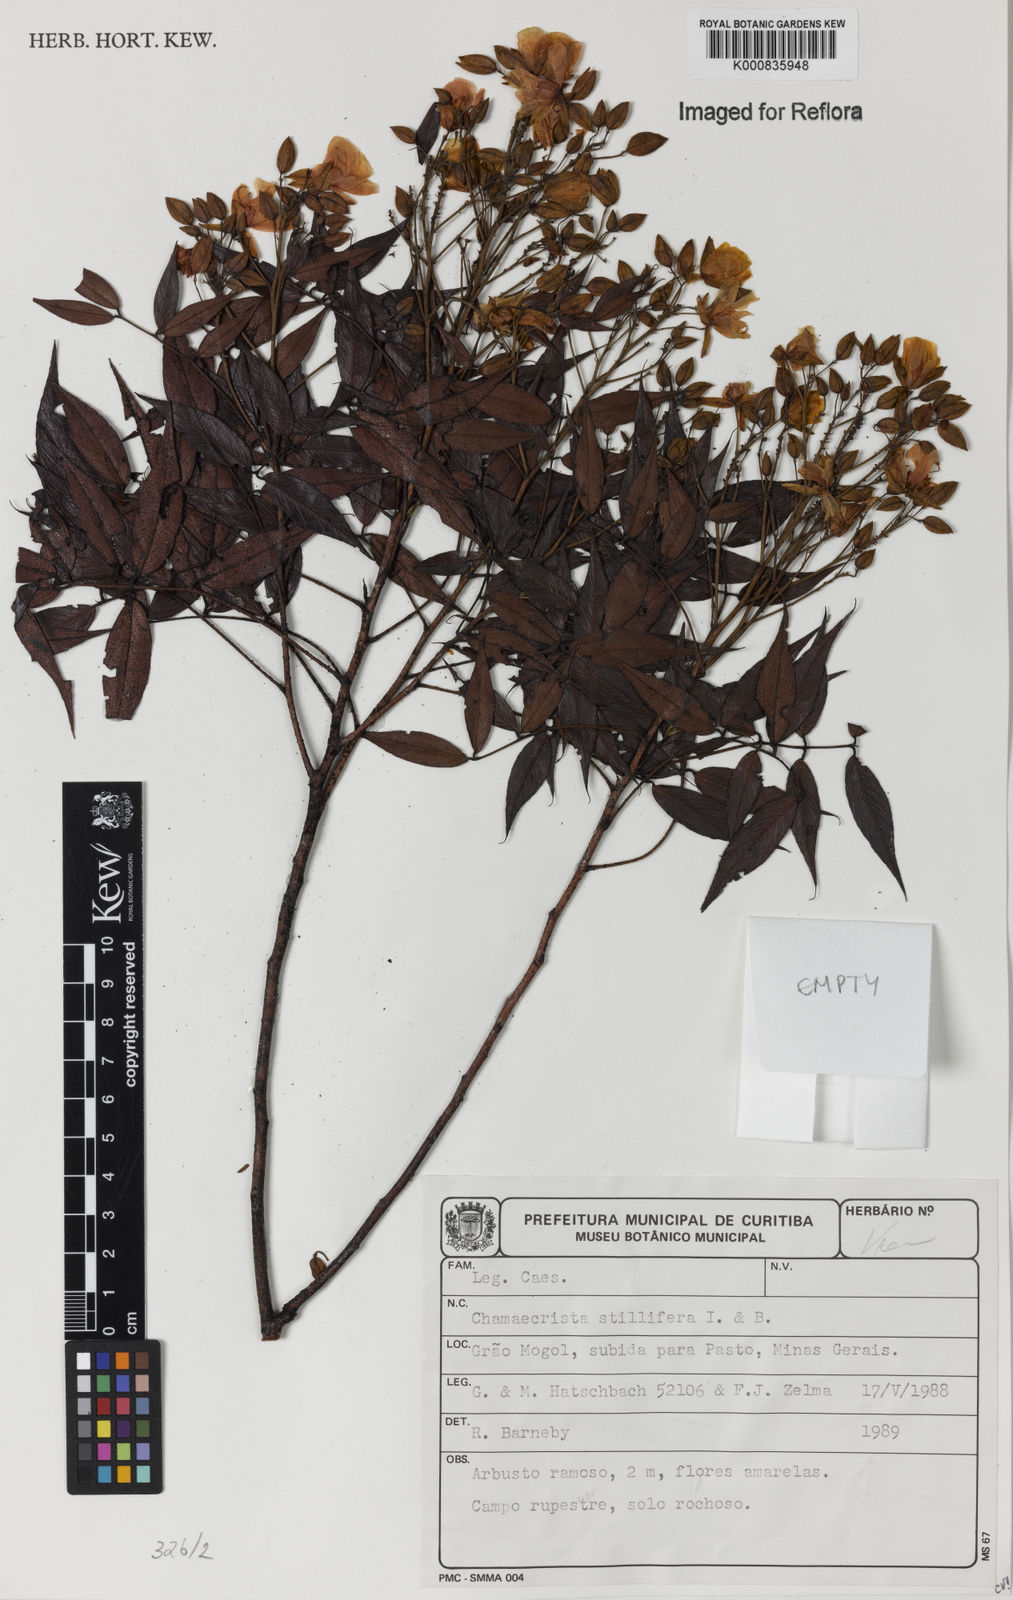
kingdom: Plantae
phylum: Tracheophyta
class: Magnoliopsida
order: Fabales
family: Fabaceae
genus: Chamaecrista
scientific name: Chamaecrista stillifera
